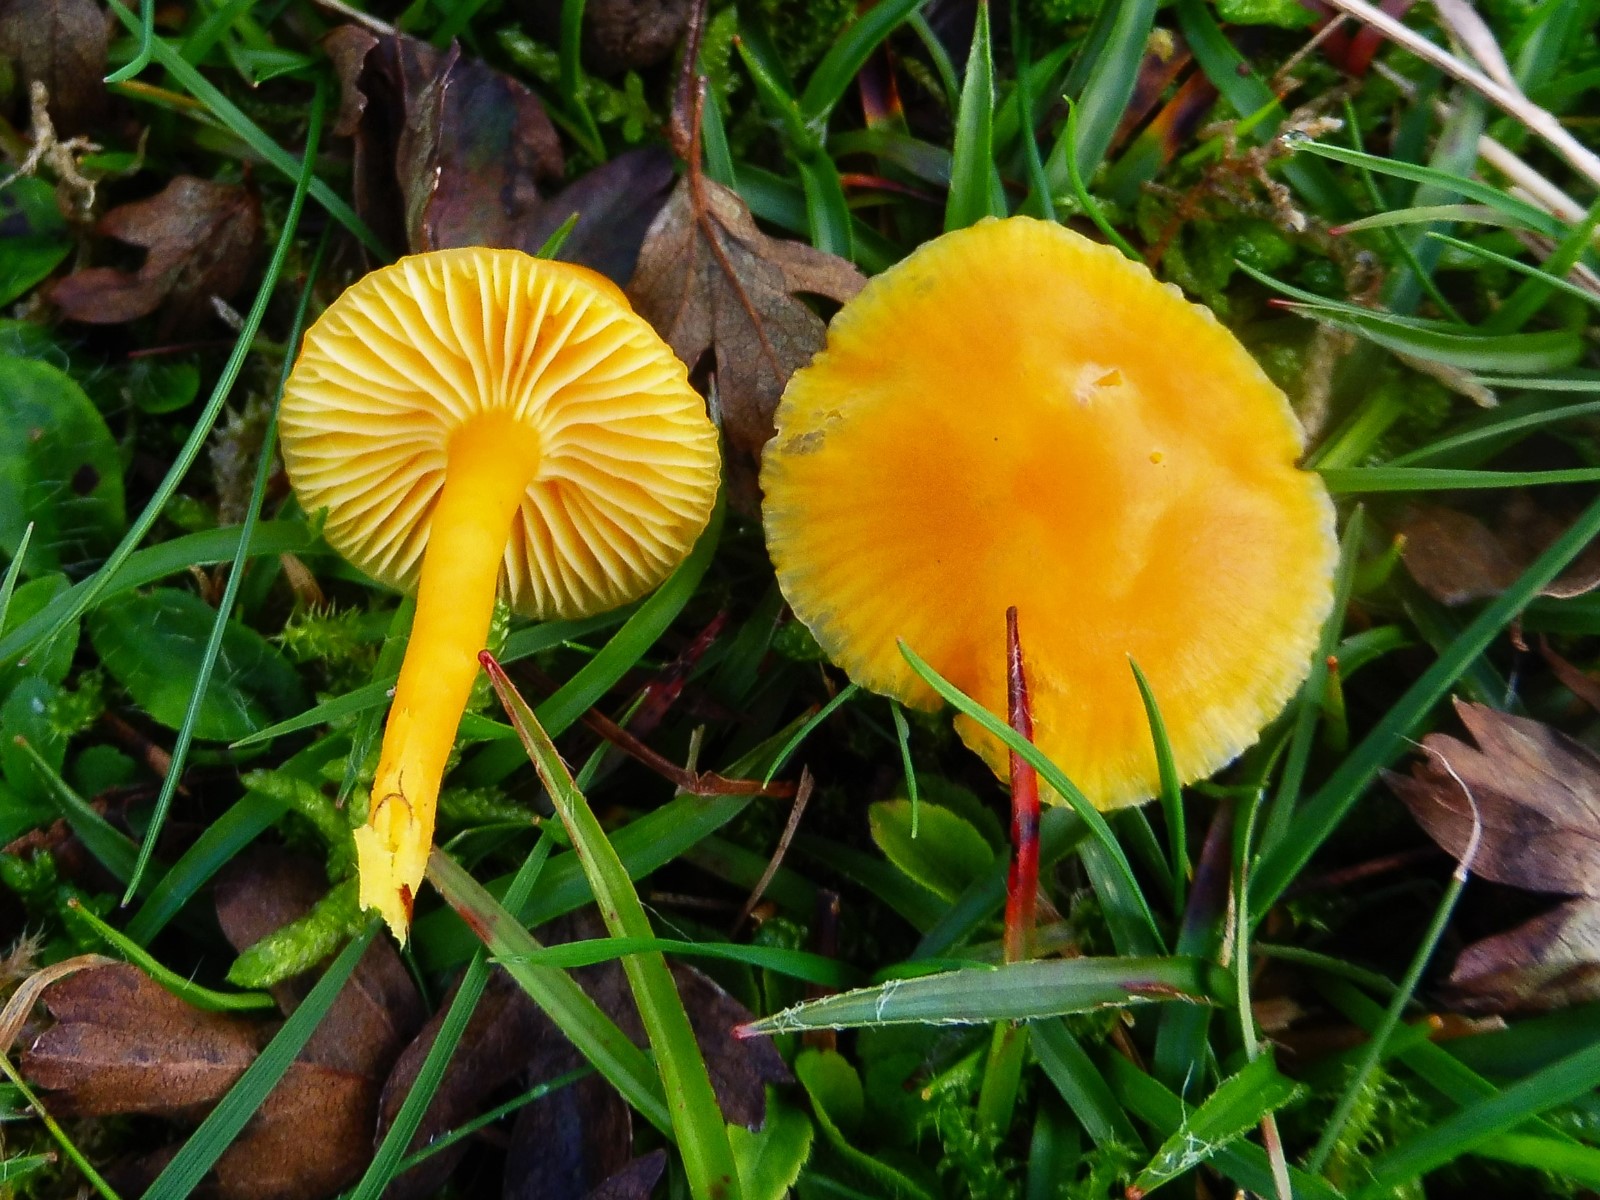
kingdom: Fungi
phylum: Basidiomycota
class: Agaricomycetes
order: Agaricales
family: Hygrophoraceae
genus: Hygrocybe
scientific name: Hygrocybe ceracea
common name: voksgul vokshat
